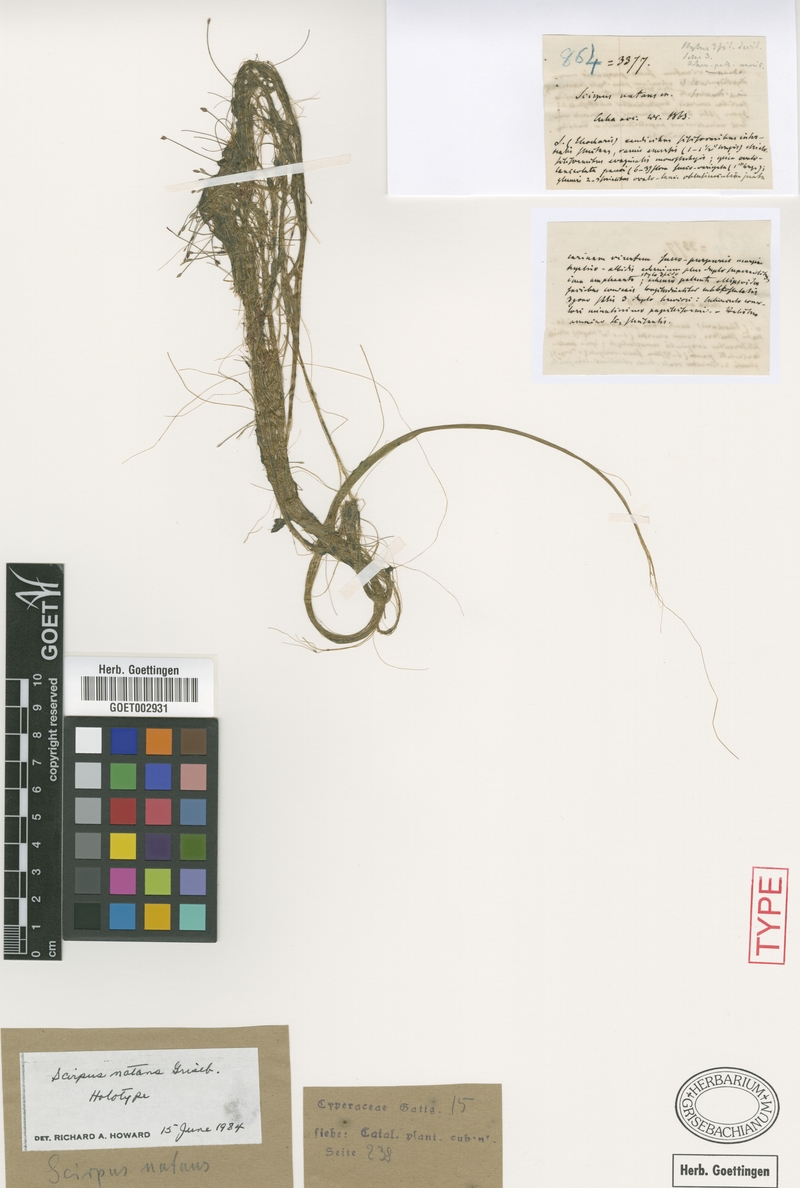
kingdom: Plantae
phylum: Tracheophyta
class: Liliopsida
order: Poales
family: Cyperaceae
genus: Eleocharis
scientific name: Eleocharis confervoides
